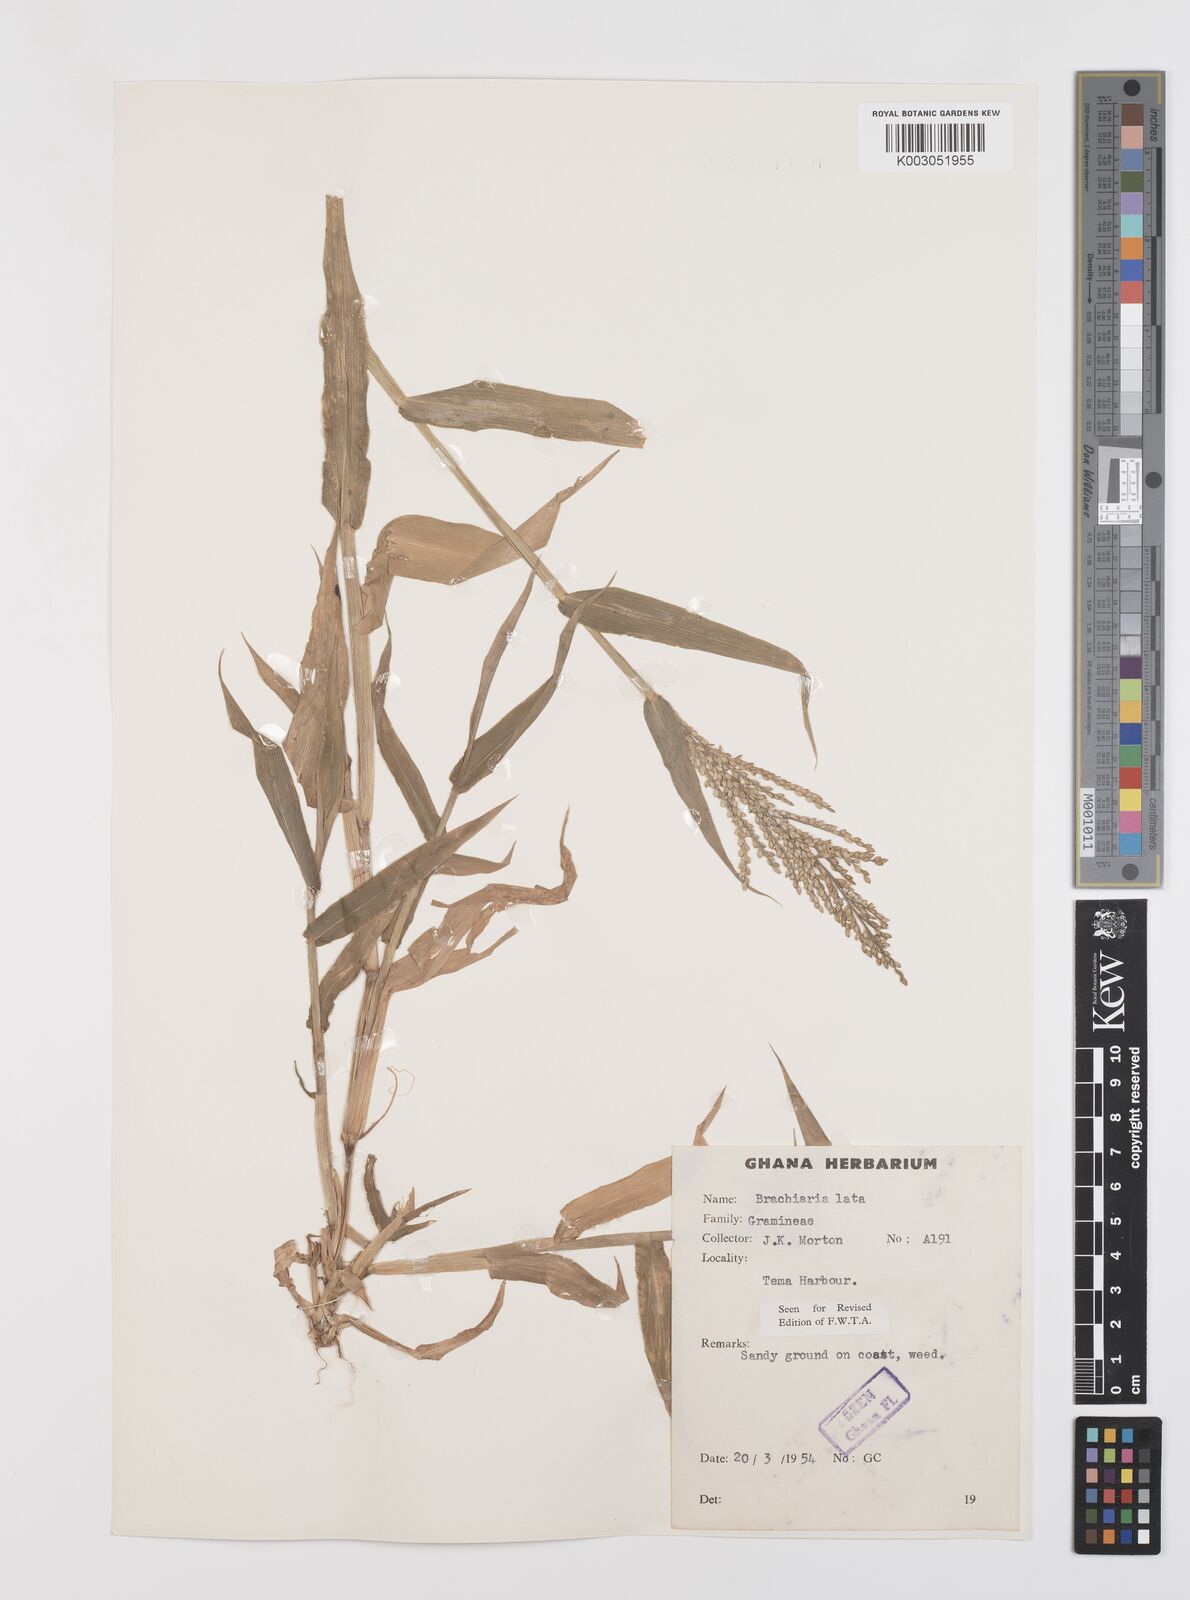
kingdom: Plantae
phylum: Tracheophyta
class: Liliopsida
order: Poales
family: Poaceae
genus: Urochloa
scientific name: Urochloa lata
